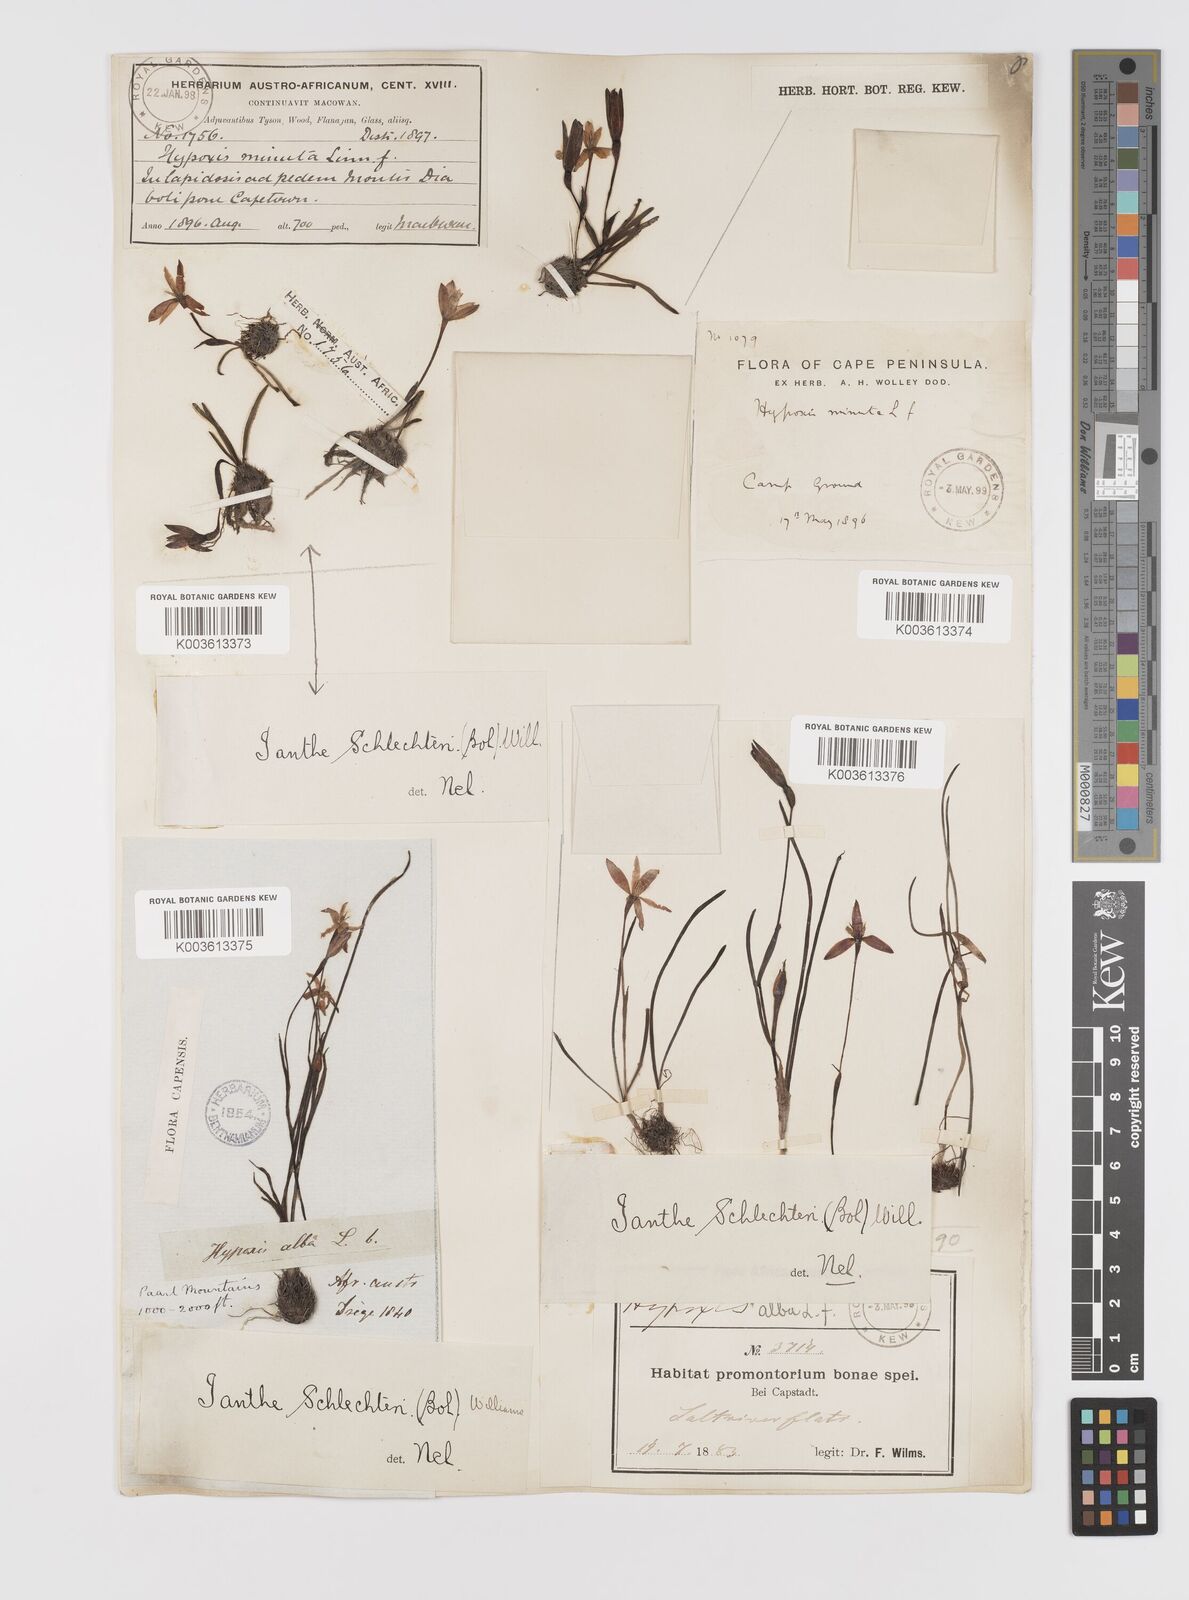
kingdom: Plantae
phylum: Tracheophyta
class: Liliopsida
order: Asparagales
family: Hypoxidaceae
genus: Pauridia
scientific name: Pauridia affinis
